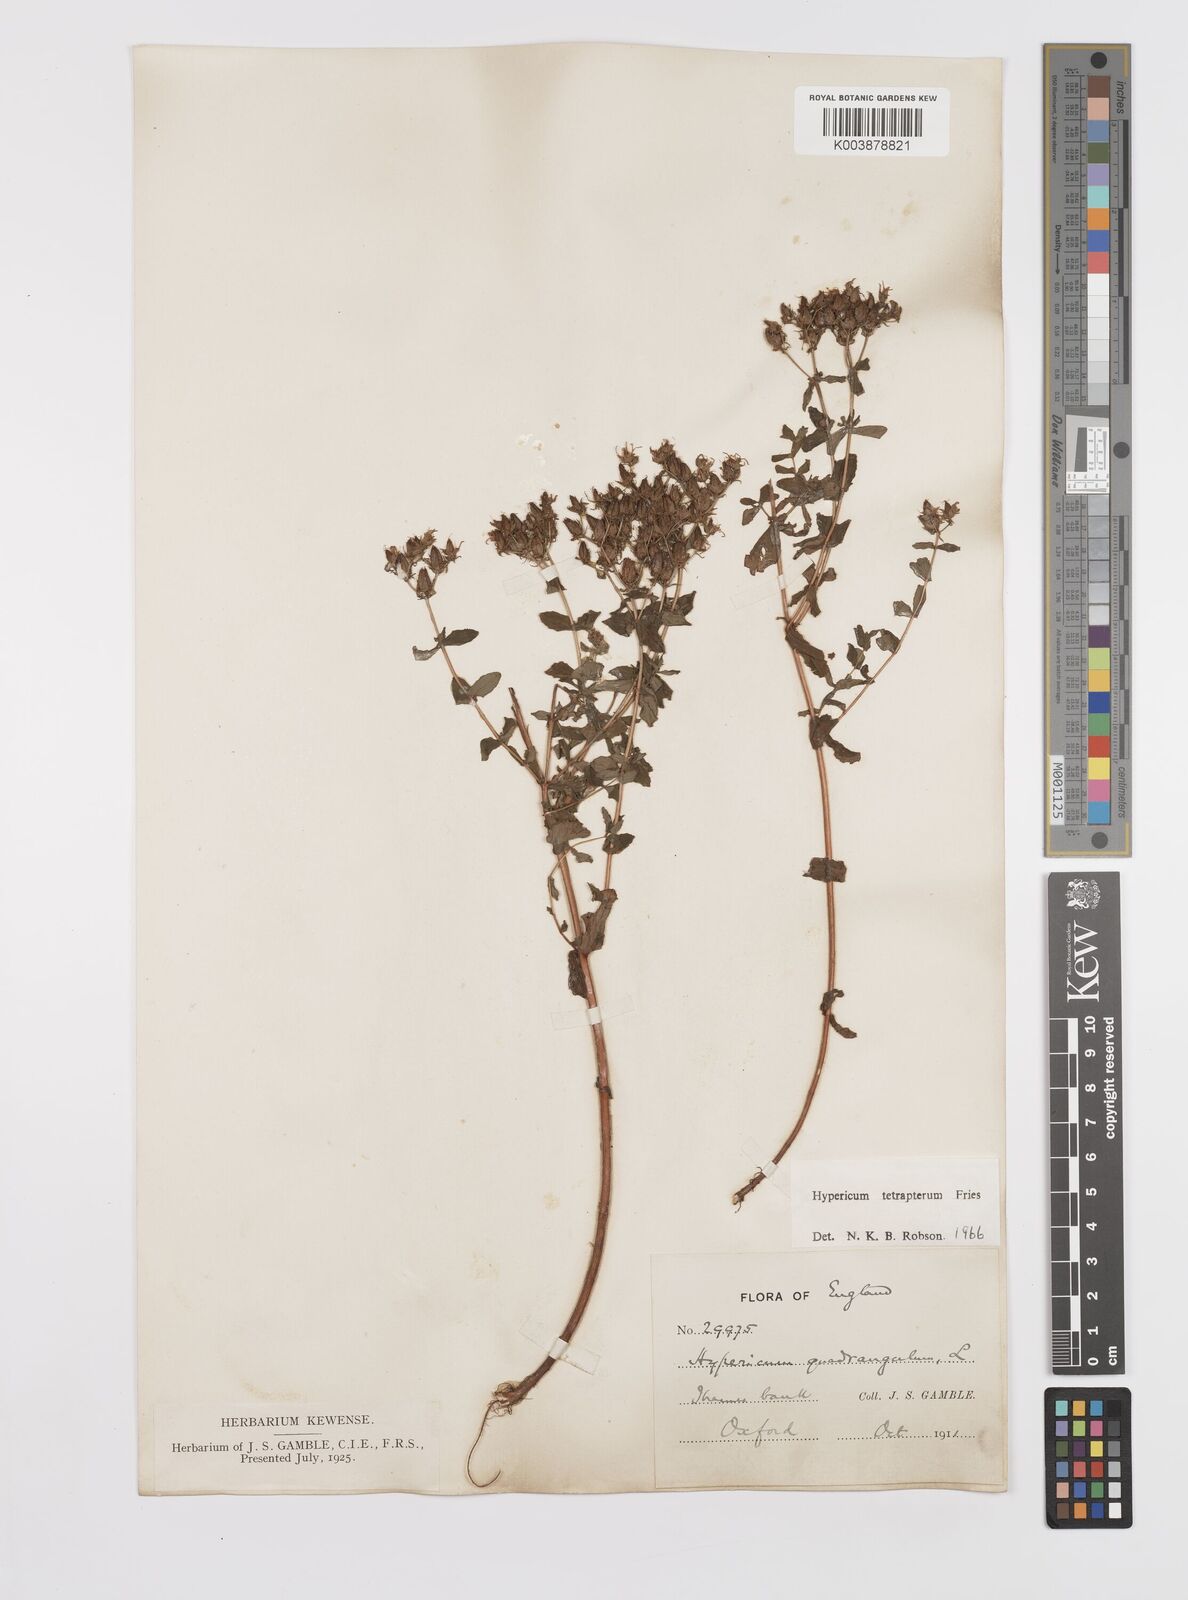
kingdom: Plantae
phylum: Tracheophyta
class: Magnoliopsida
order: Malpighiales
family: Hypericaceae
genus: Hypericum
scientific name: Hypericum tetrapterum
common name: Square-stalked st. john's-wort
